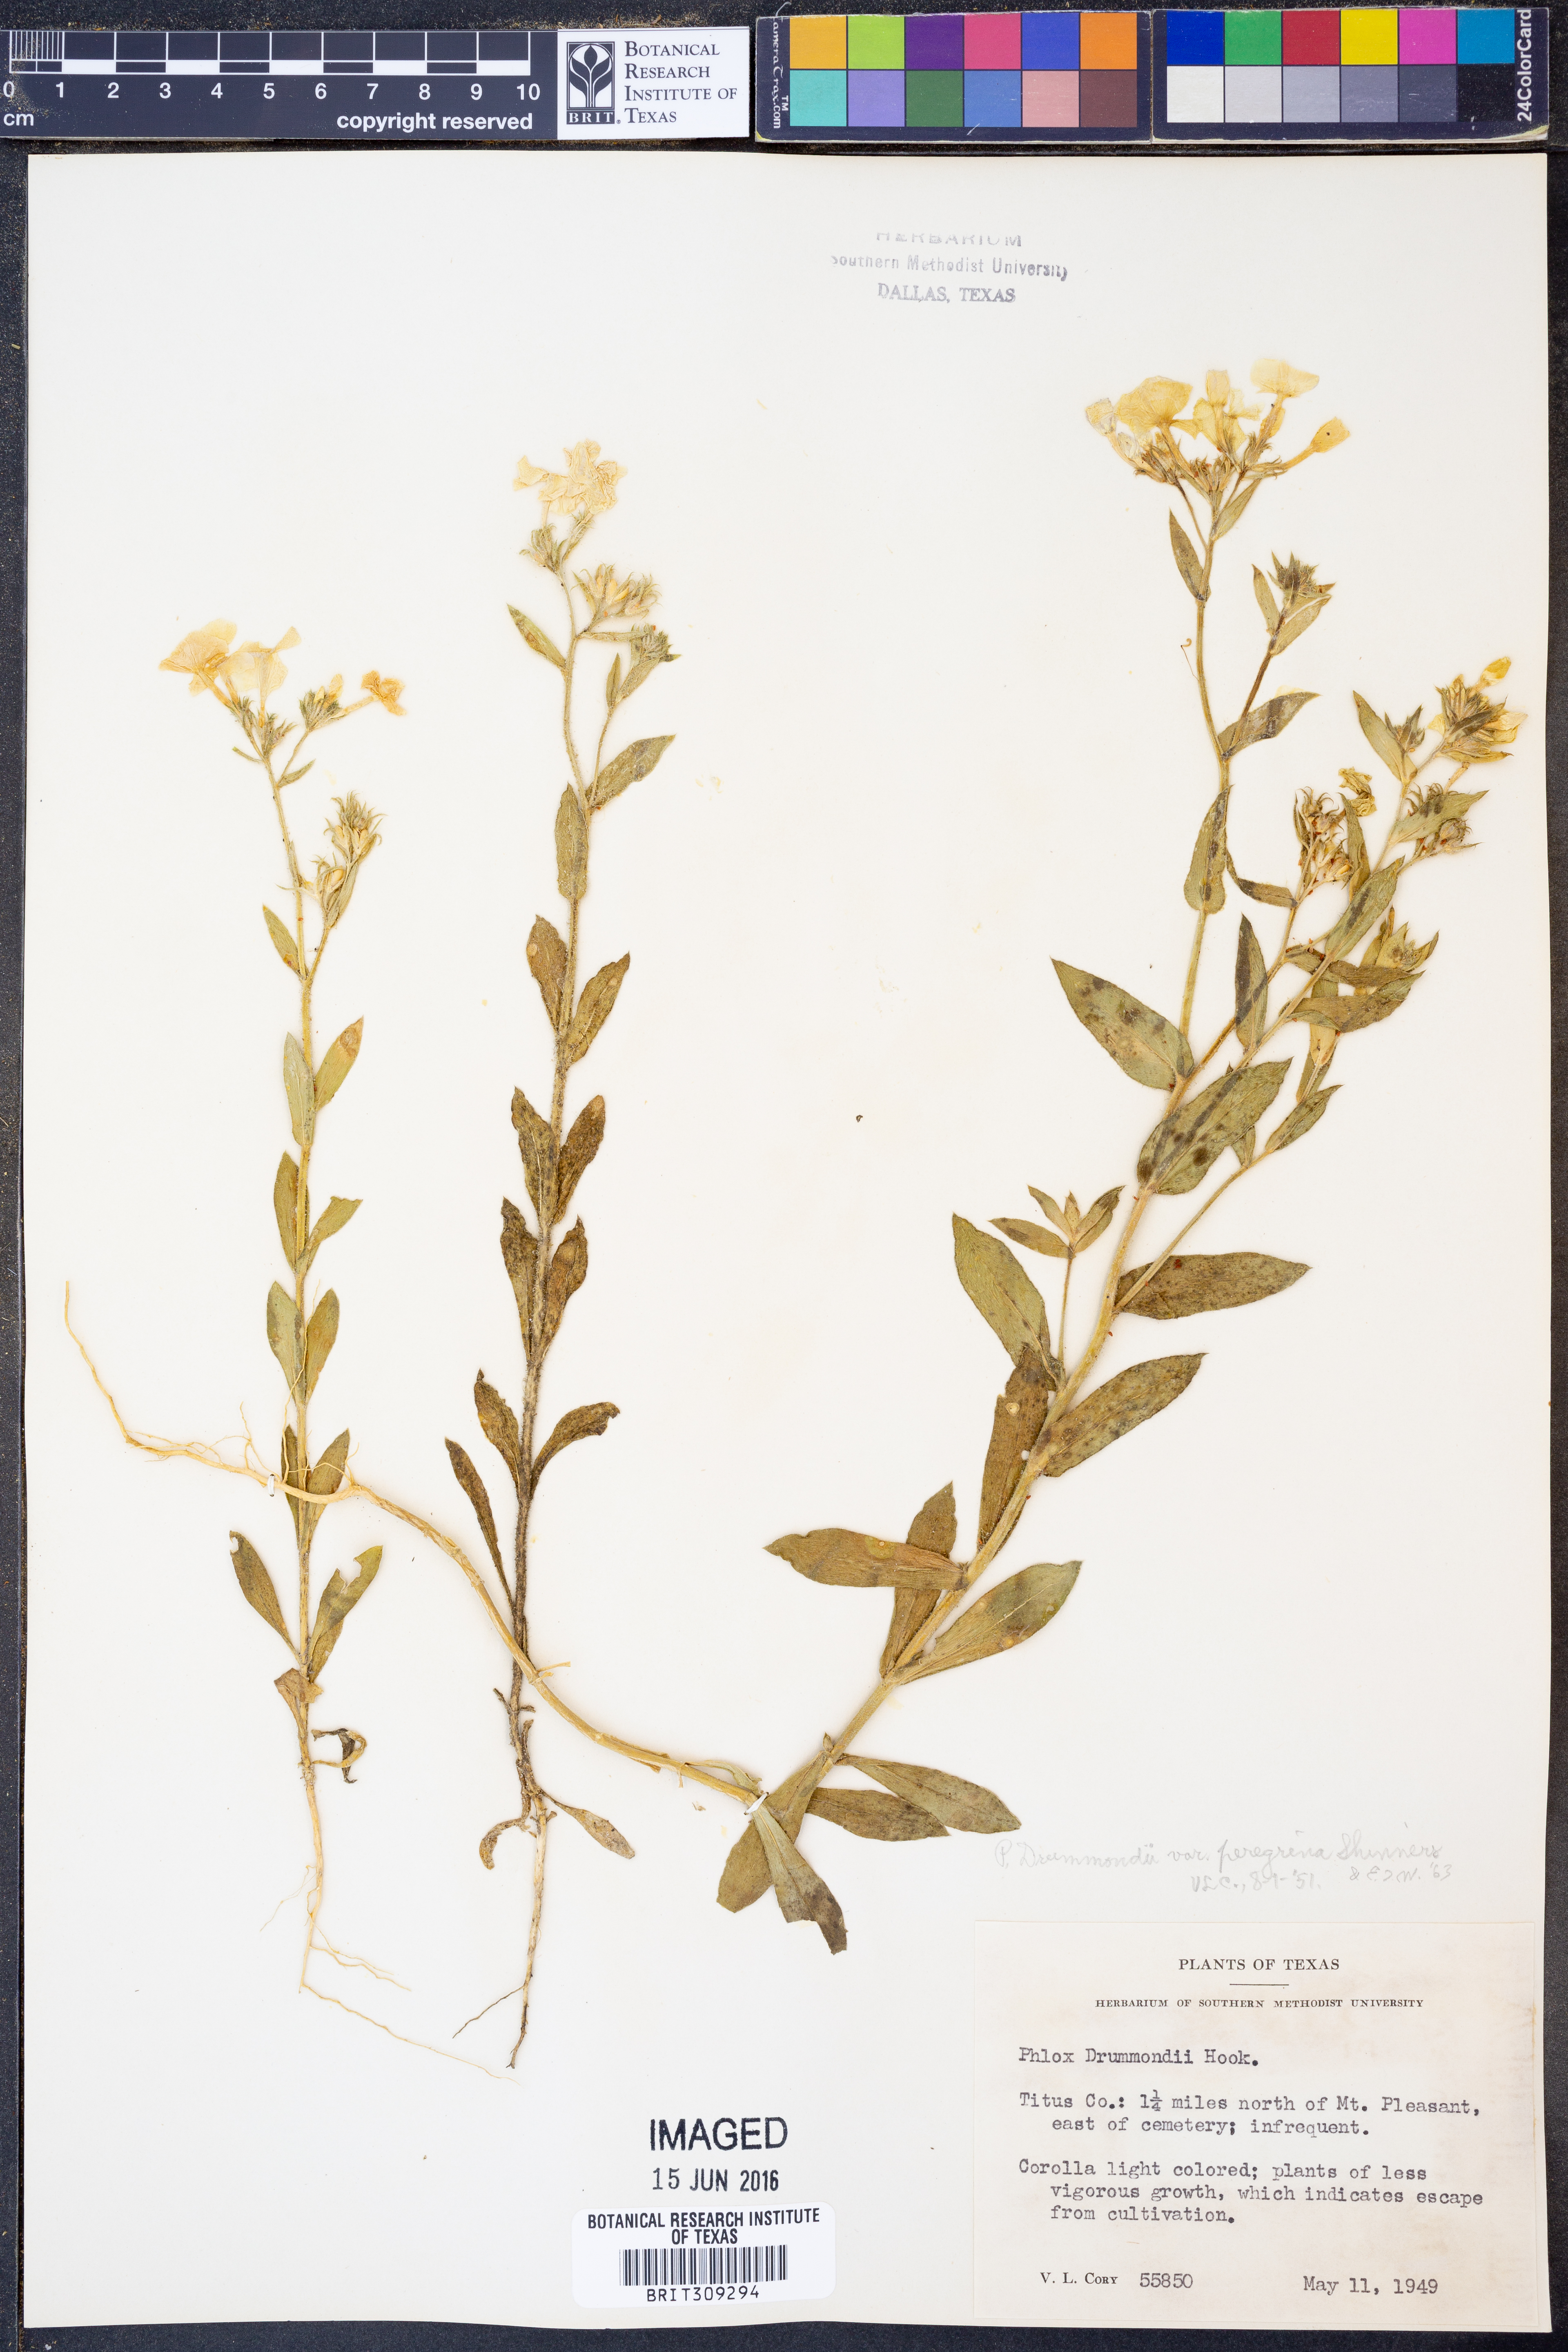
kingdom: Plantae
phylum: Tracheophyta
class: Magnoliopsida
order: Ericales
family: Polemoniaceae
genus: Phlox
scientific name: Phlox drummondii
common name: Drummond's phlox
